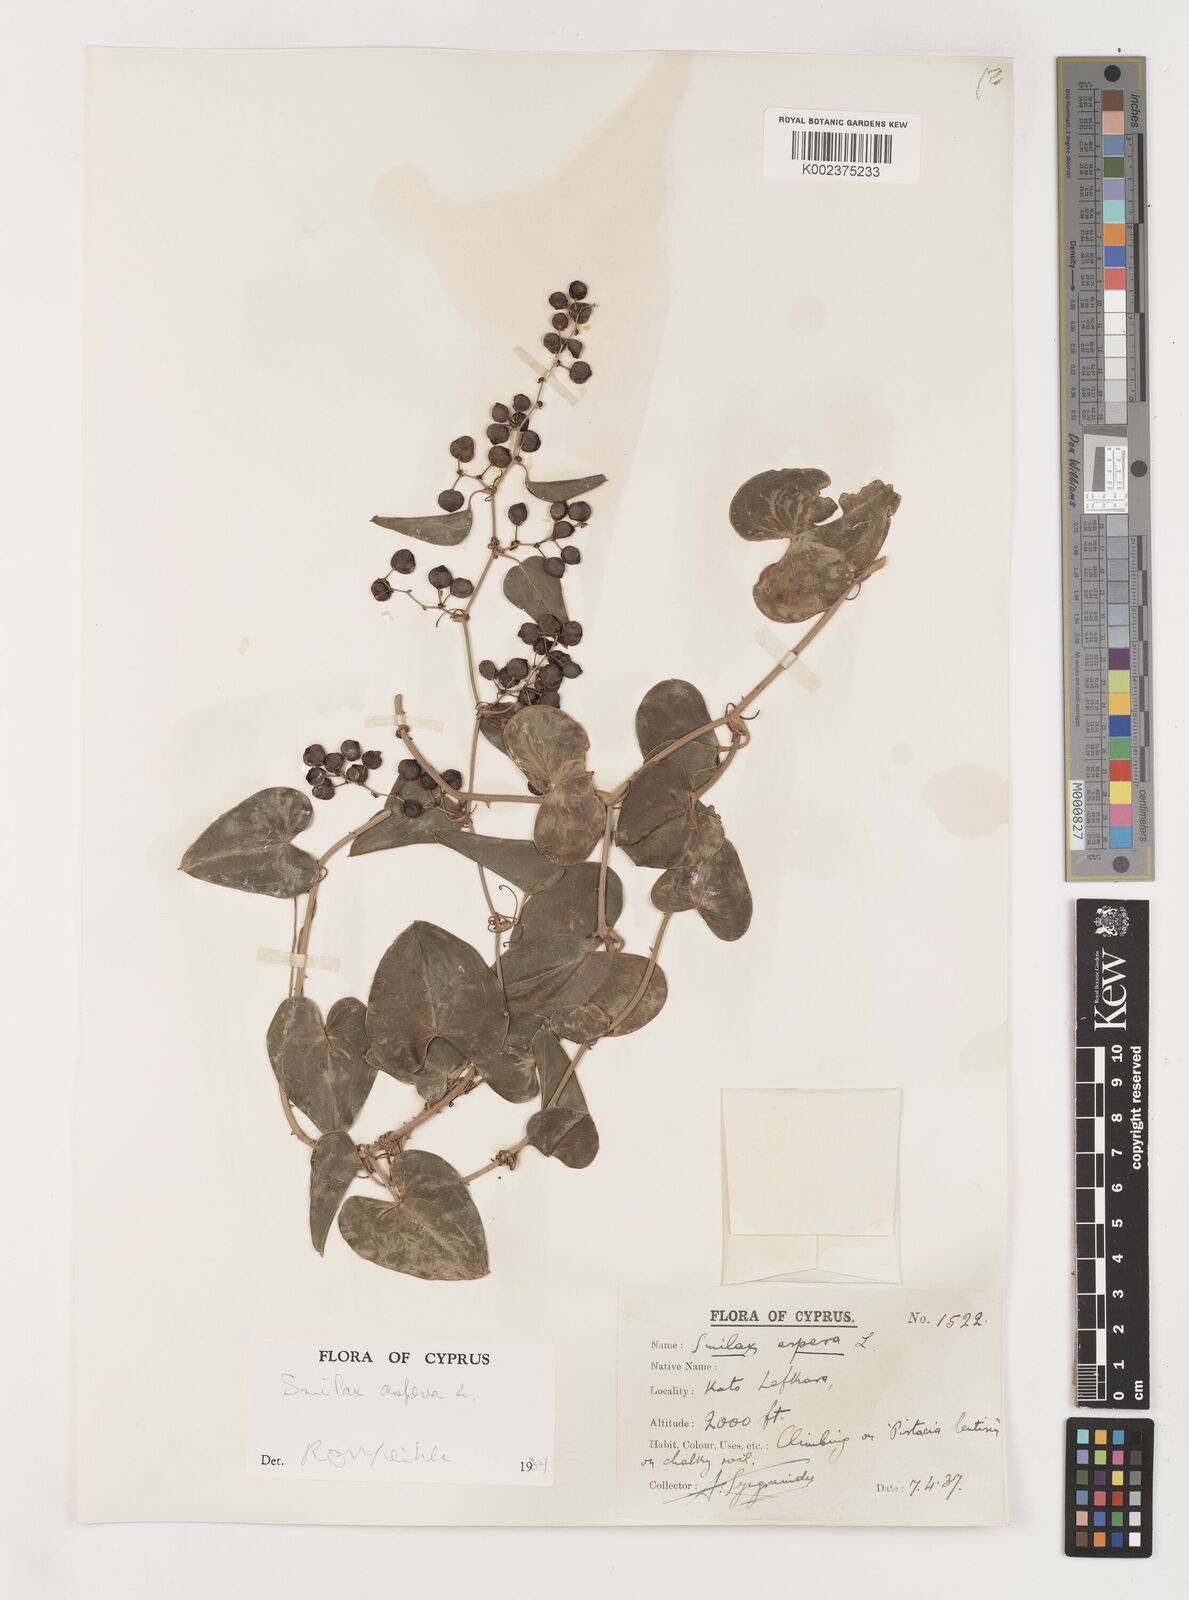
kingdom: Plantae
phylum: Tracheophyta
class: Liliopsida
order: Liliales
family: Smilacaceae
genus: Smilax
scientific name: Smilax aspera
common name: Common smilax
